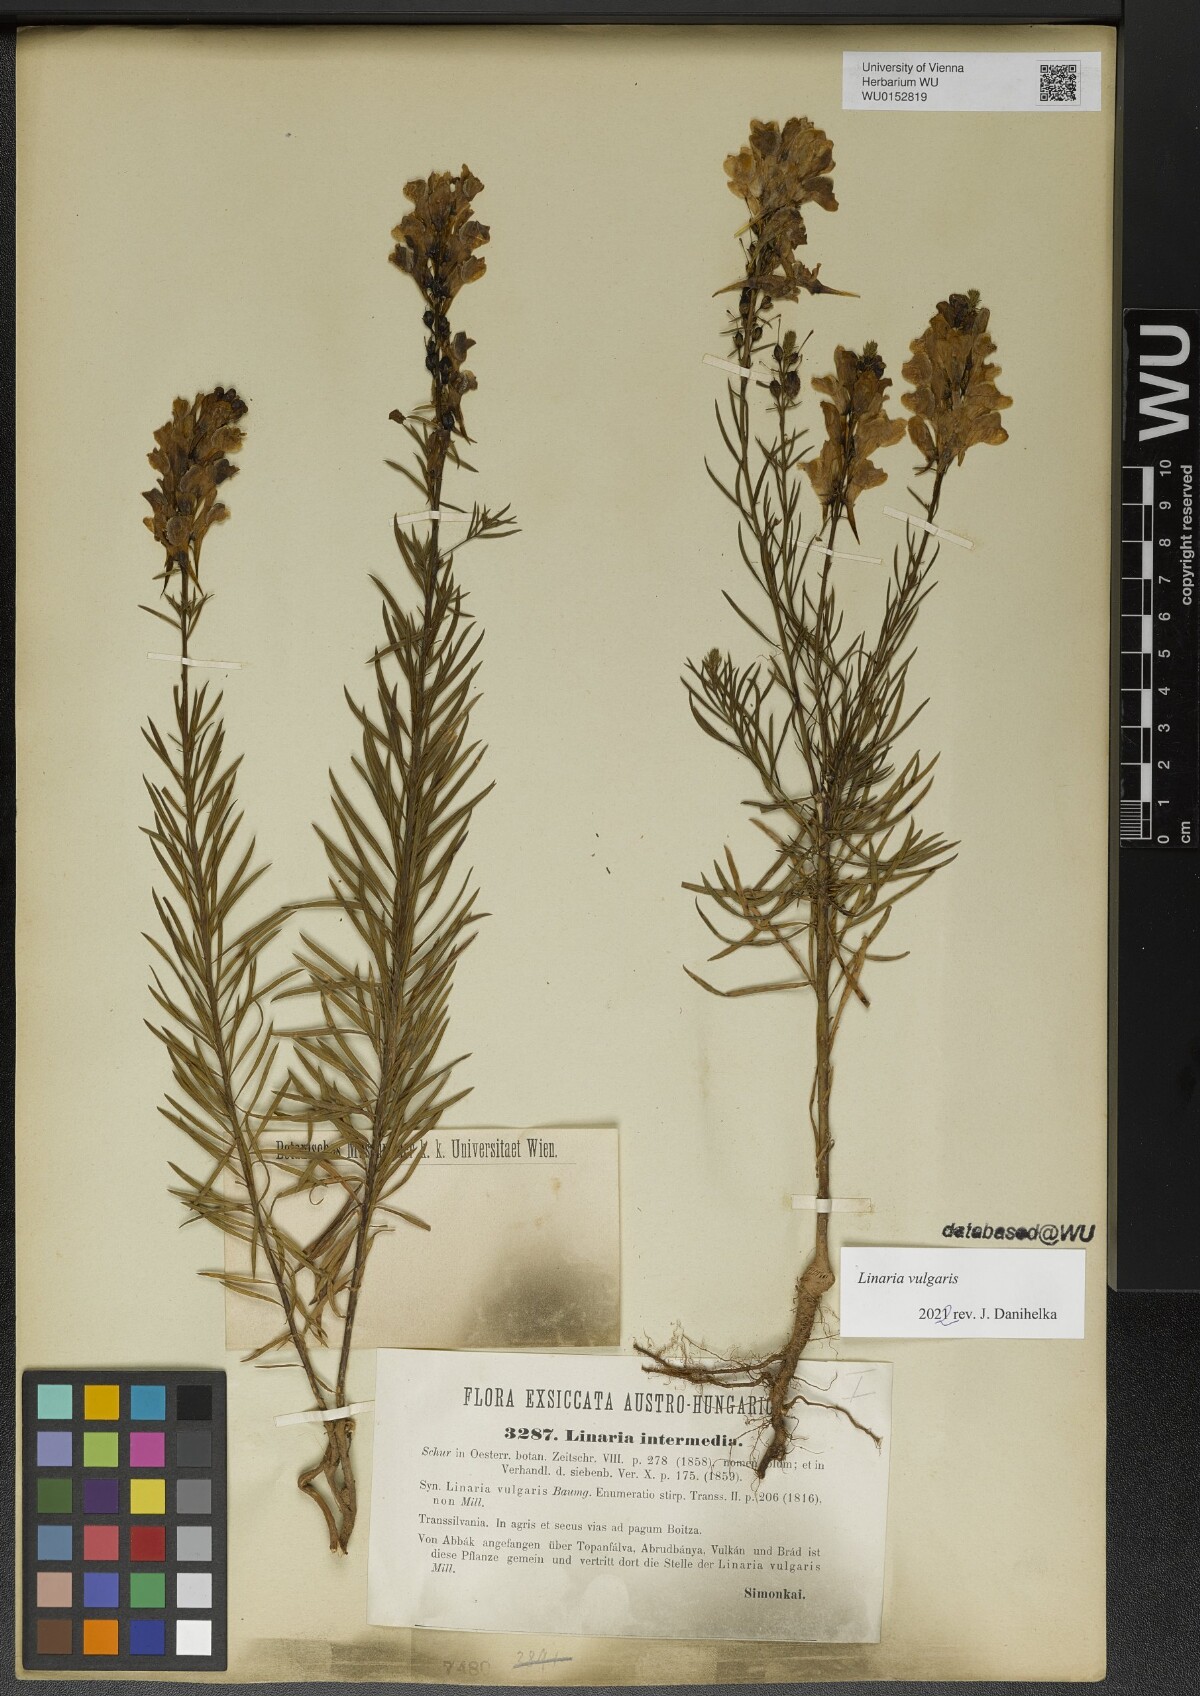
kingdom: Plantae
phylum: Tracheophyta
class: Magnoliopsida
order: Lamiales
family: Plantaginaceae
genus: Linaria
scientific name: Linaria vulgaris
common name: Butter and eggs
